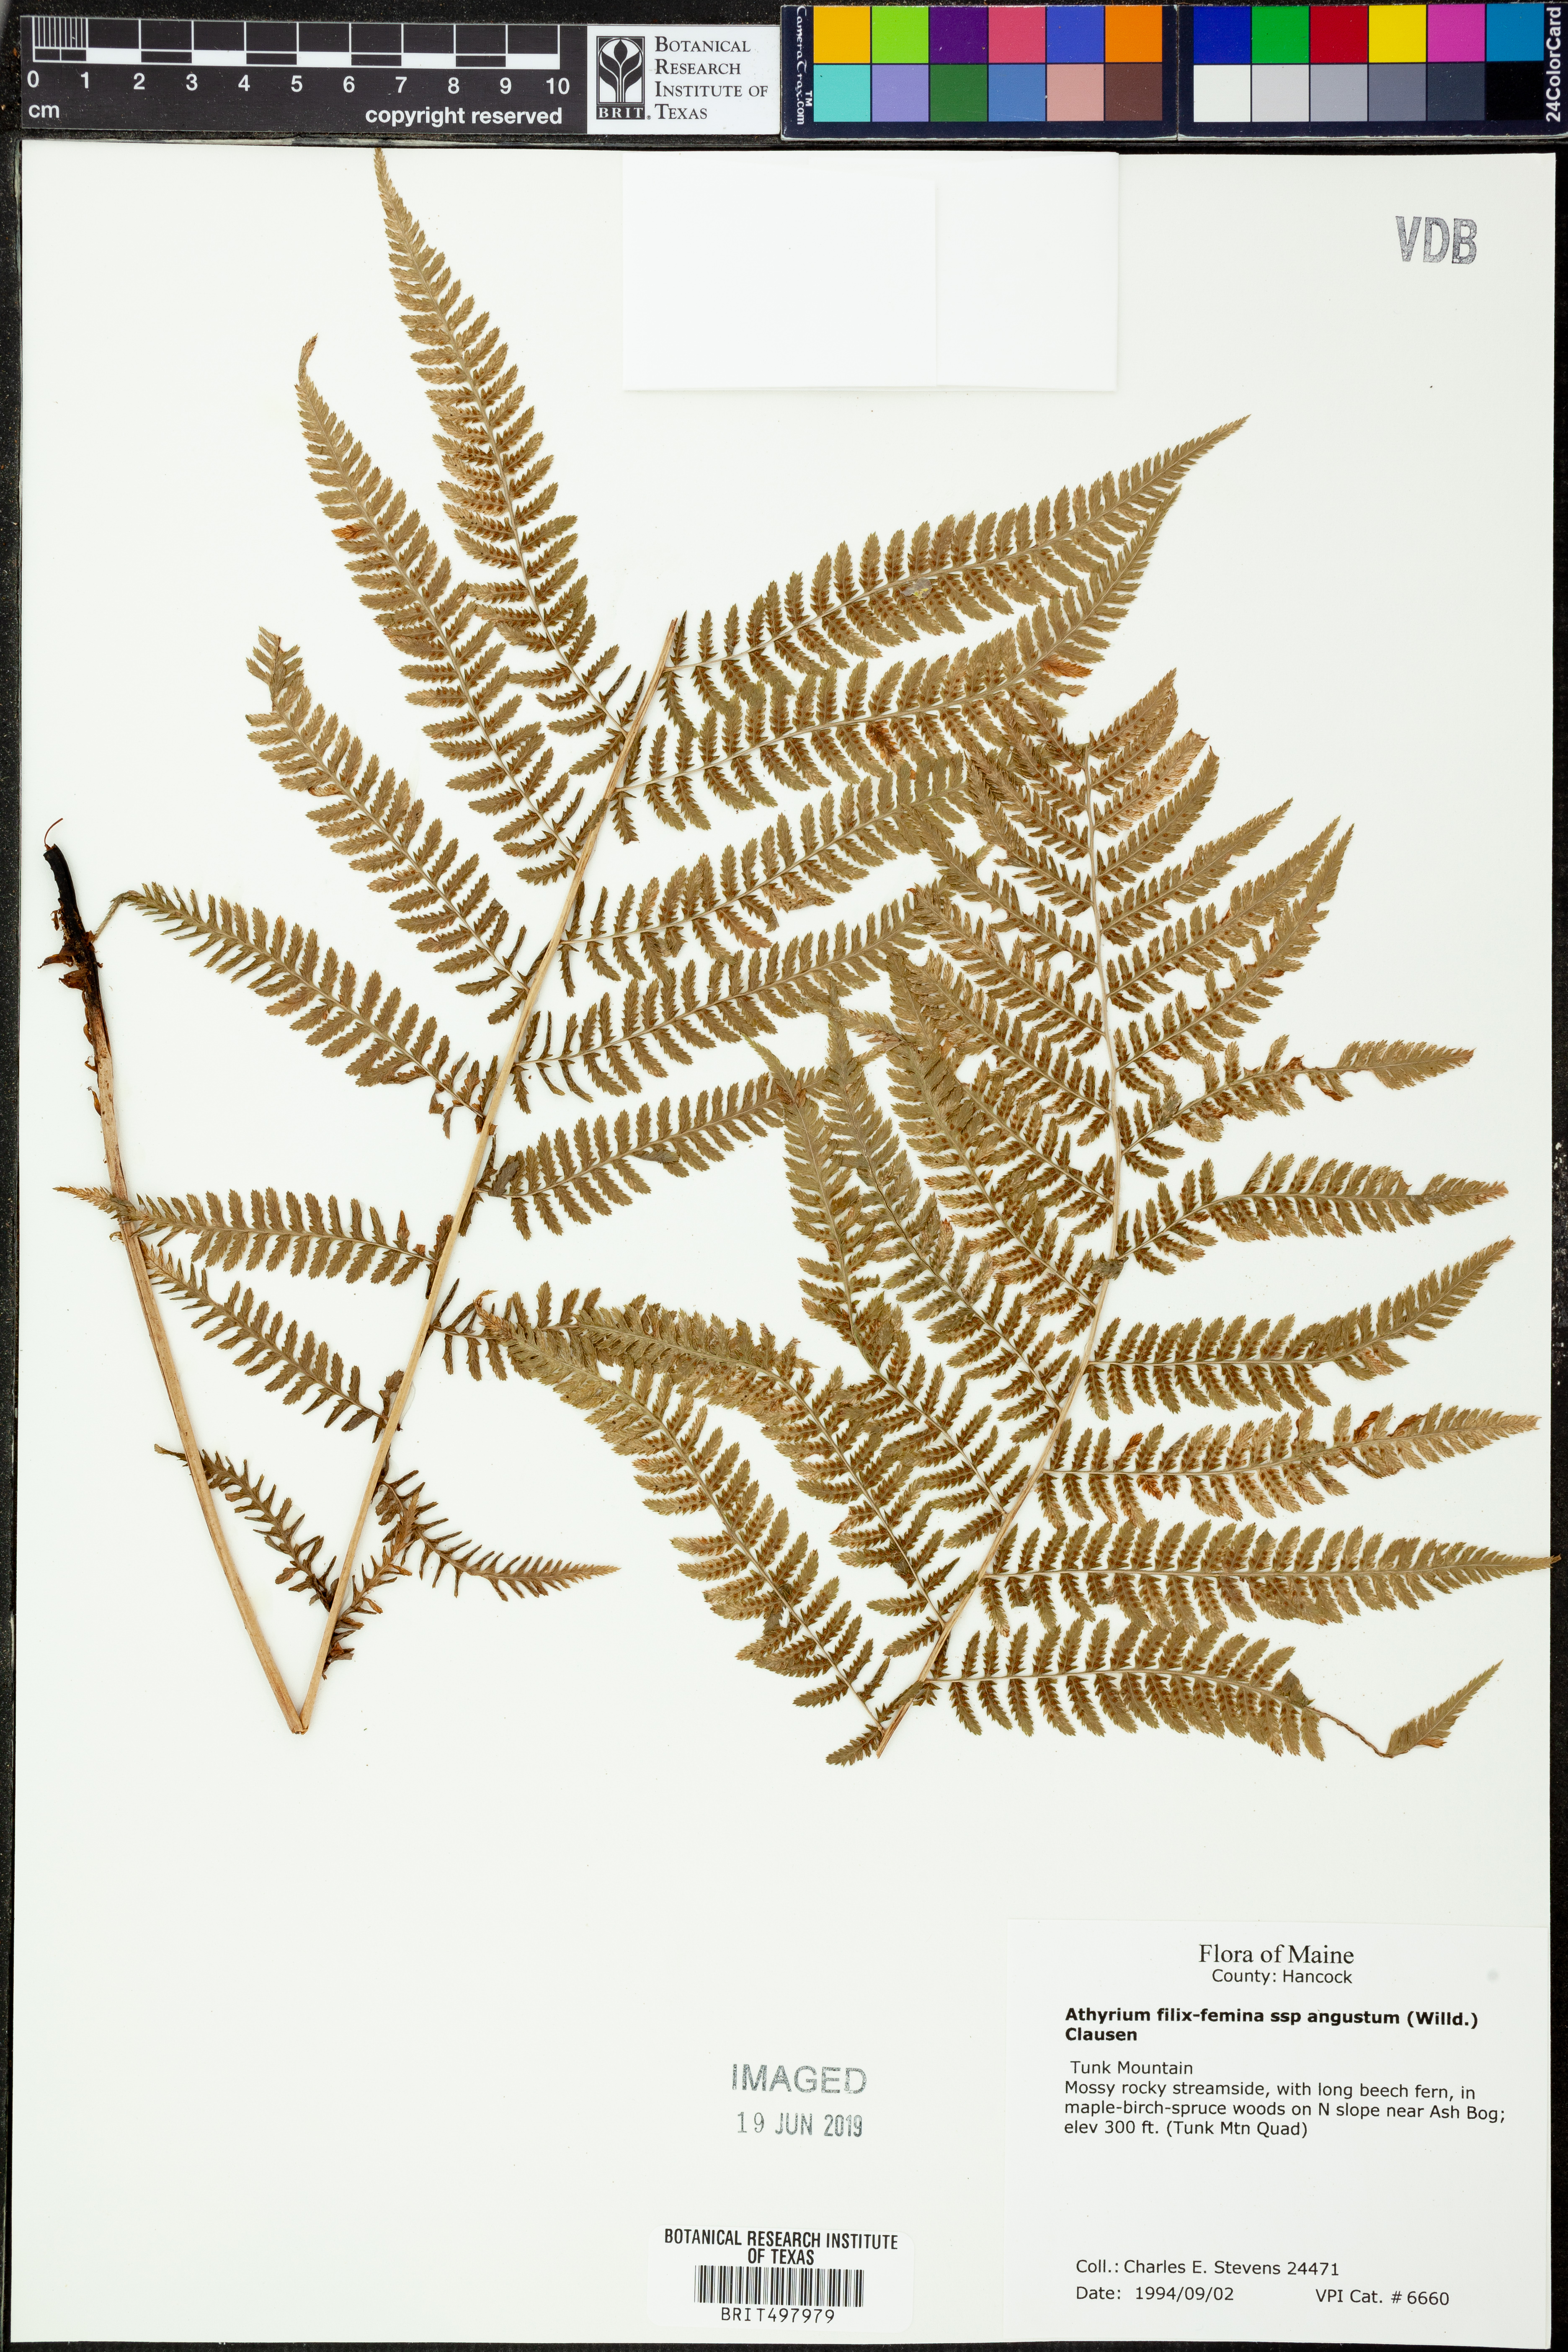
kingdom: Plantae
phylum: Tracheophyta
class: Polypodiopsida
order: Polypodiales
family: Athyriaceae
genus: Athyrium
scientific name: Athyrium angustum
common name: Northern lady fern
